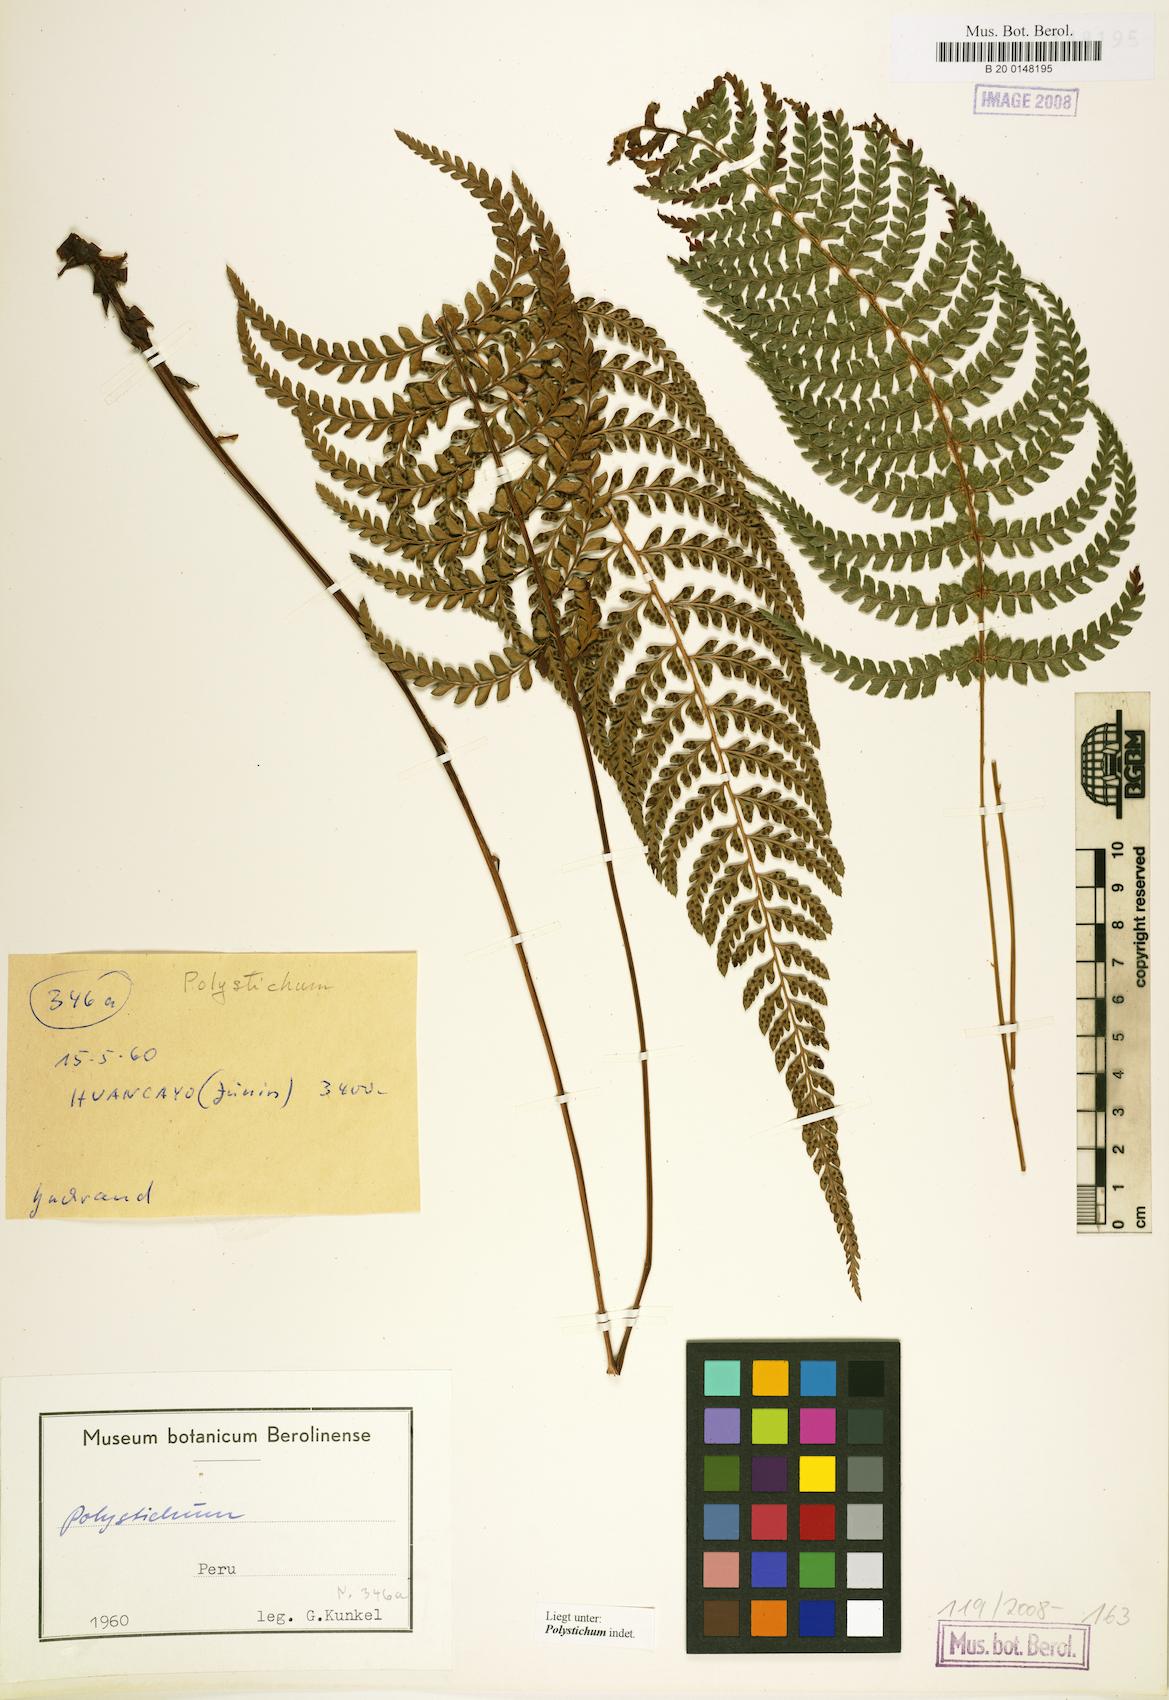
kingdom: Plantae
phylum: Tracheophyta
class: Polypodiopsida
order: Polypodiales
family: Dryopteridaceae
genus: Polystichum
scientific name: Polystichum
